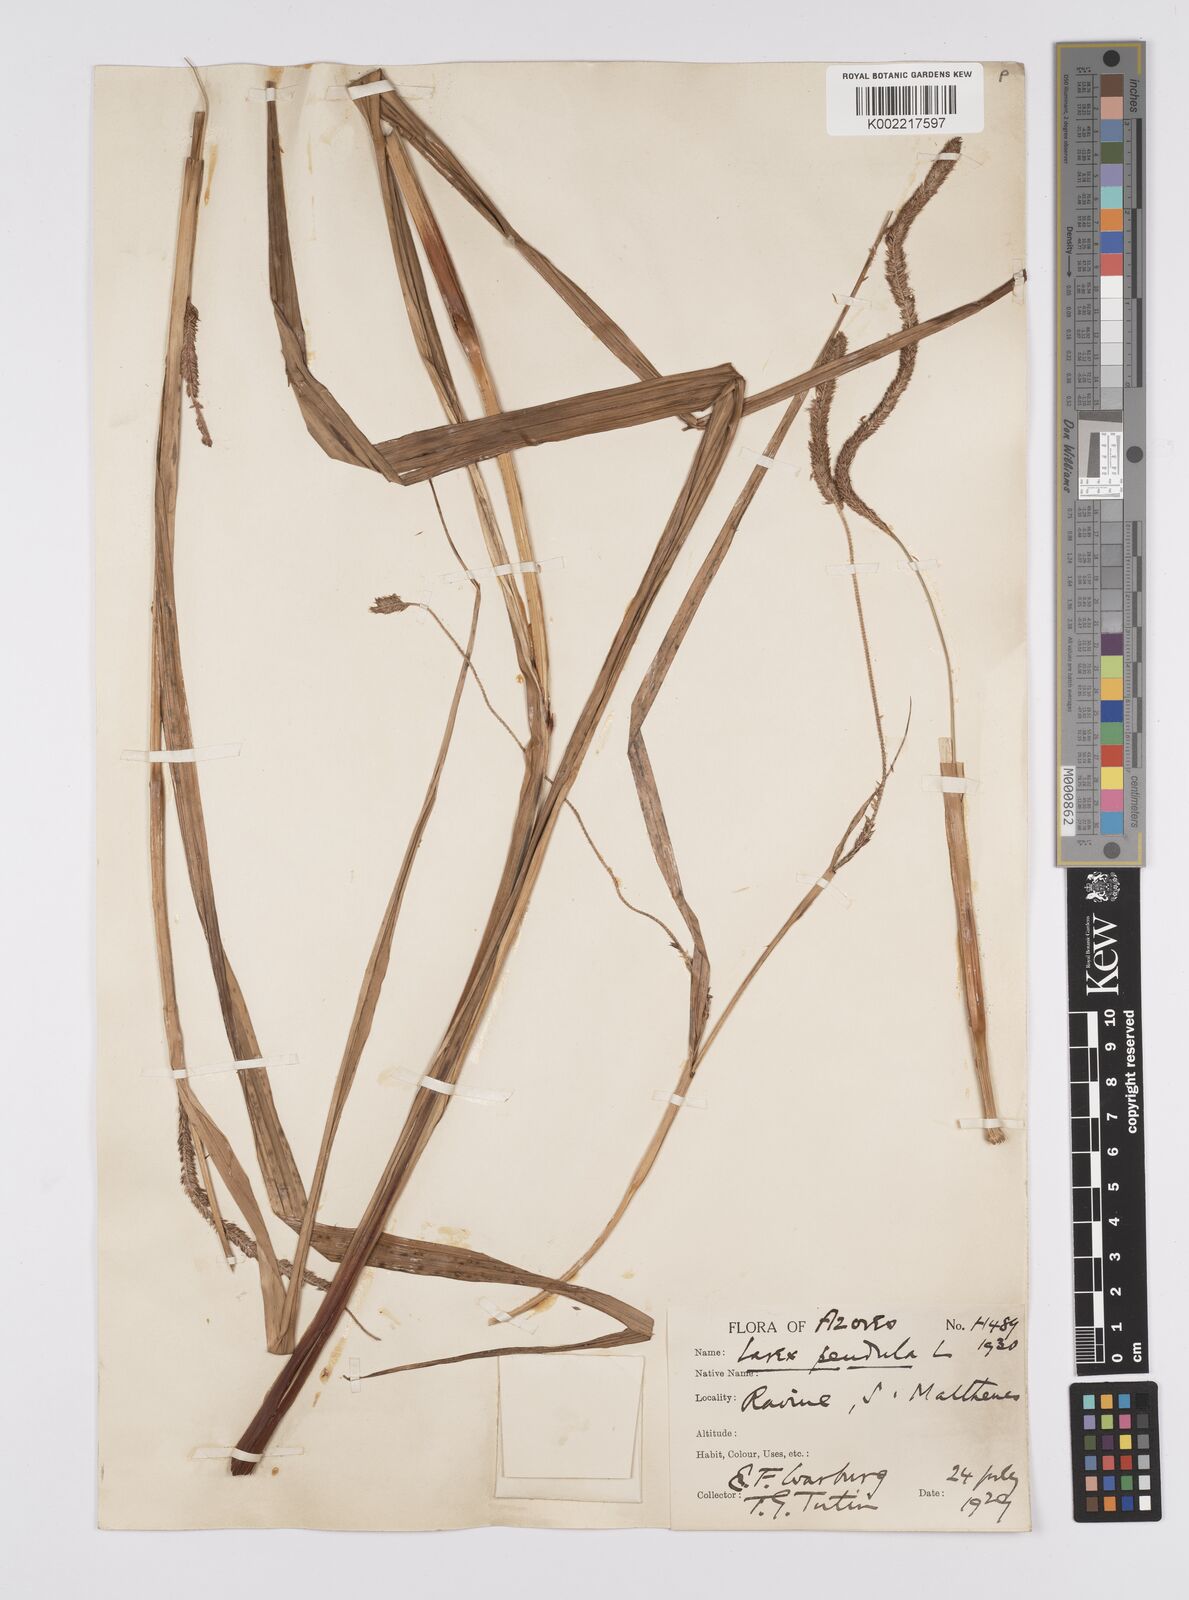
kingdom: Plantae
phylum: Tracheophyta
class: Liliopsida
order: Poales
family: Cyperaceae
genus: Carex
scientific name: Carex pendula
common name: Pendulous sedge
